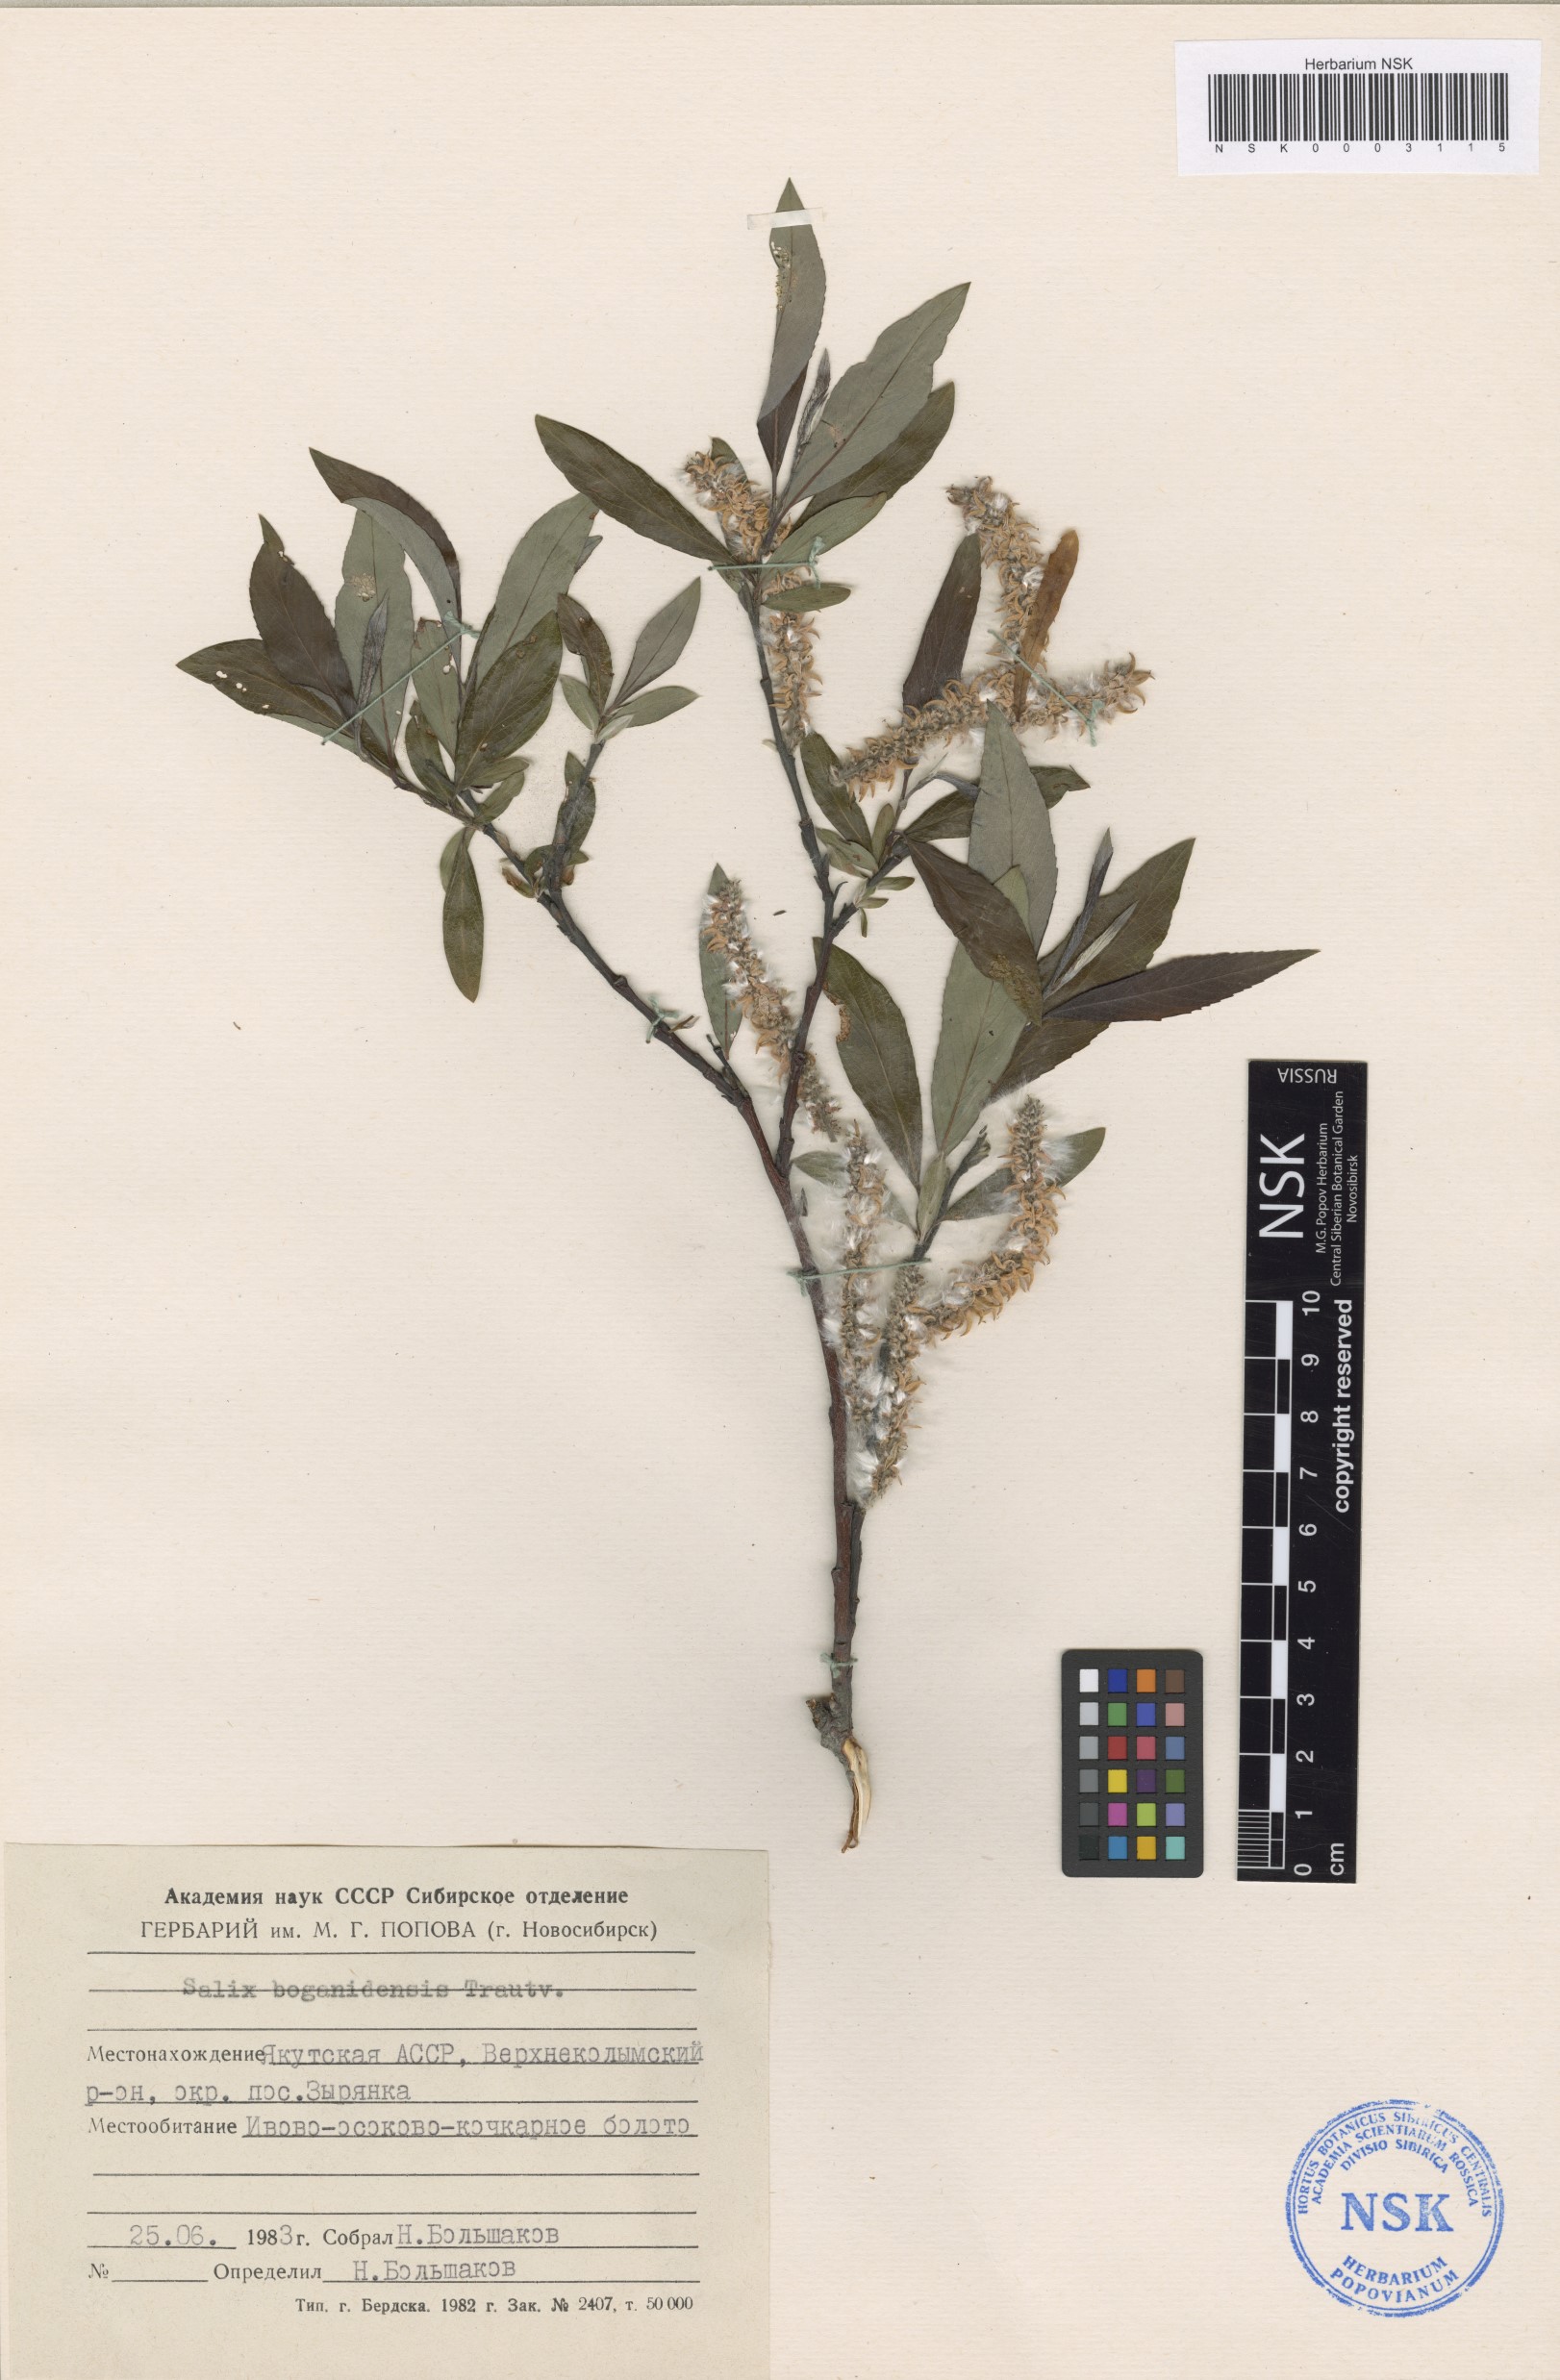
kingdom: Plantae
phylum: Tracheophyta
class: Magnoliopsida
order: Malpighiales
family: Salicaceae
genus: Salix
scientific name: Salix boganidensis
